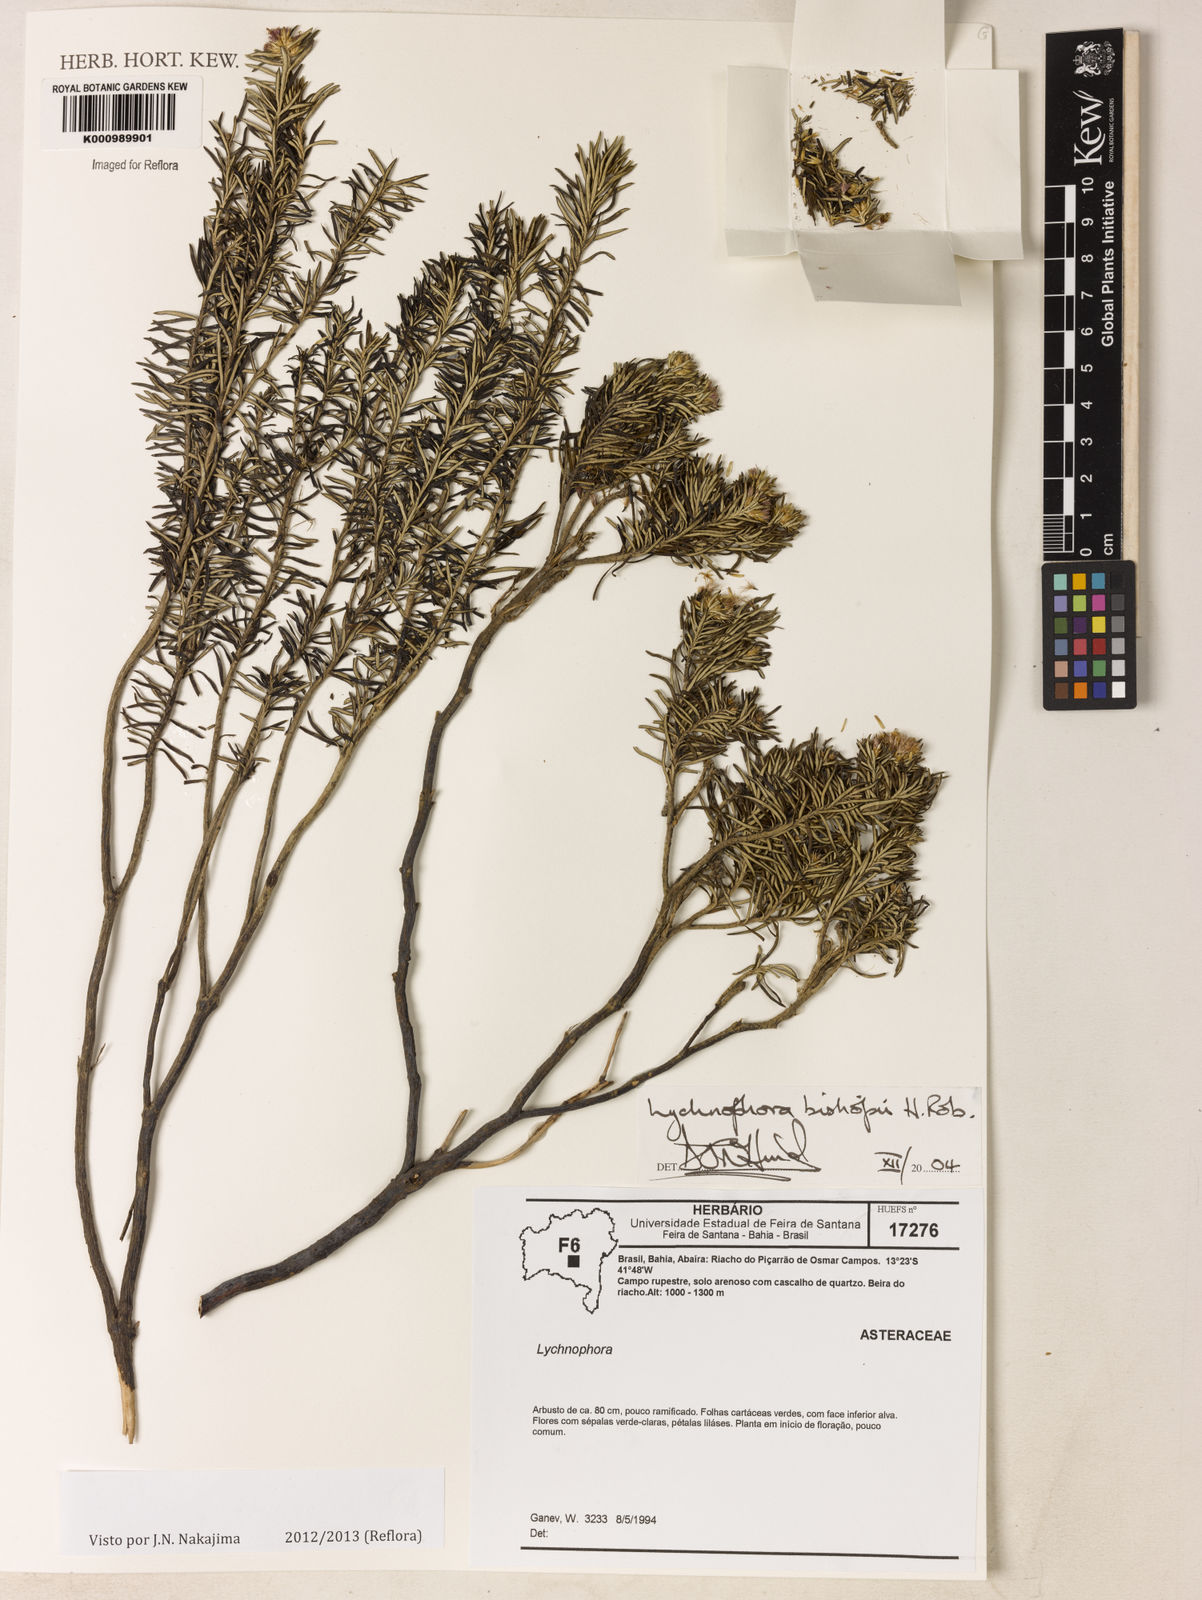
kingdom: Plantae
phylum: Tracheophyta
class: Magnoliopsida
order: Asterales
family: Asteraceae
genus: Lychnophorella
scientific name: Lychnophorella bishopii
